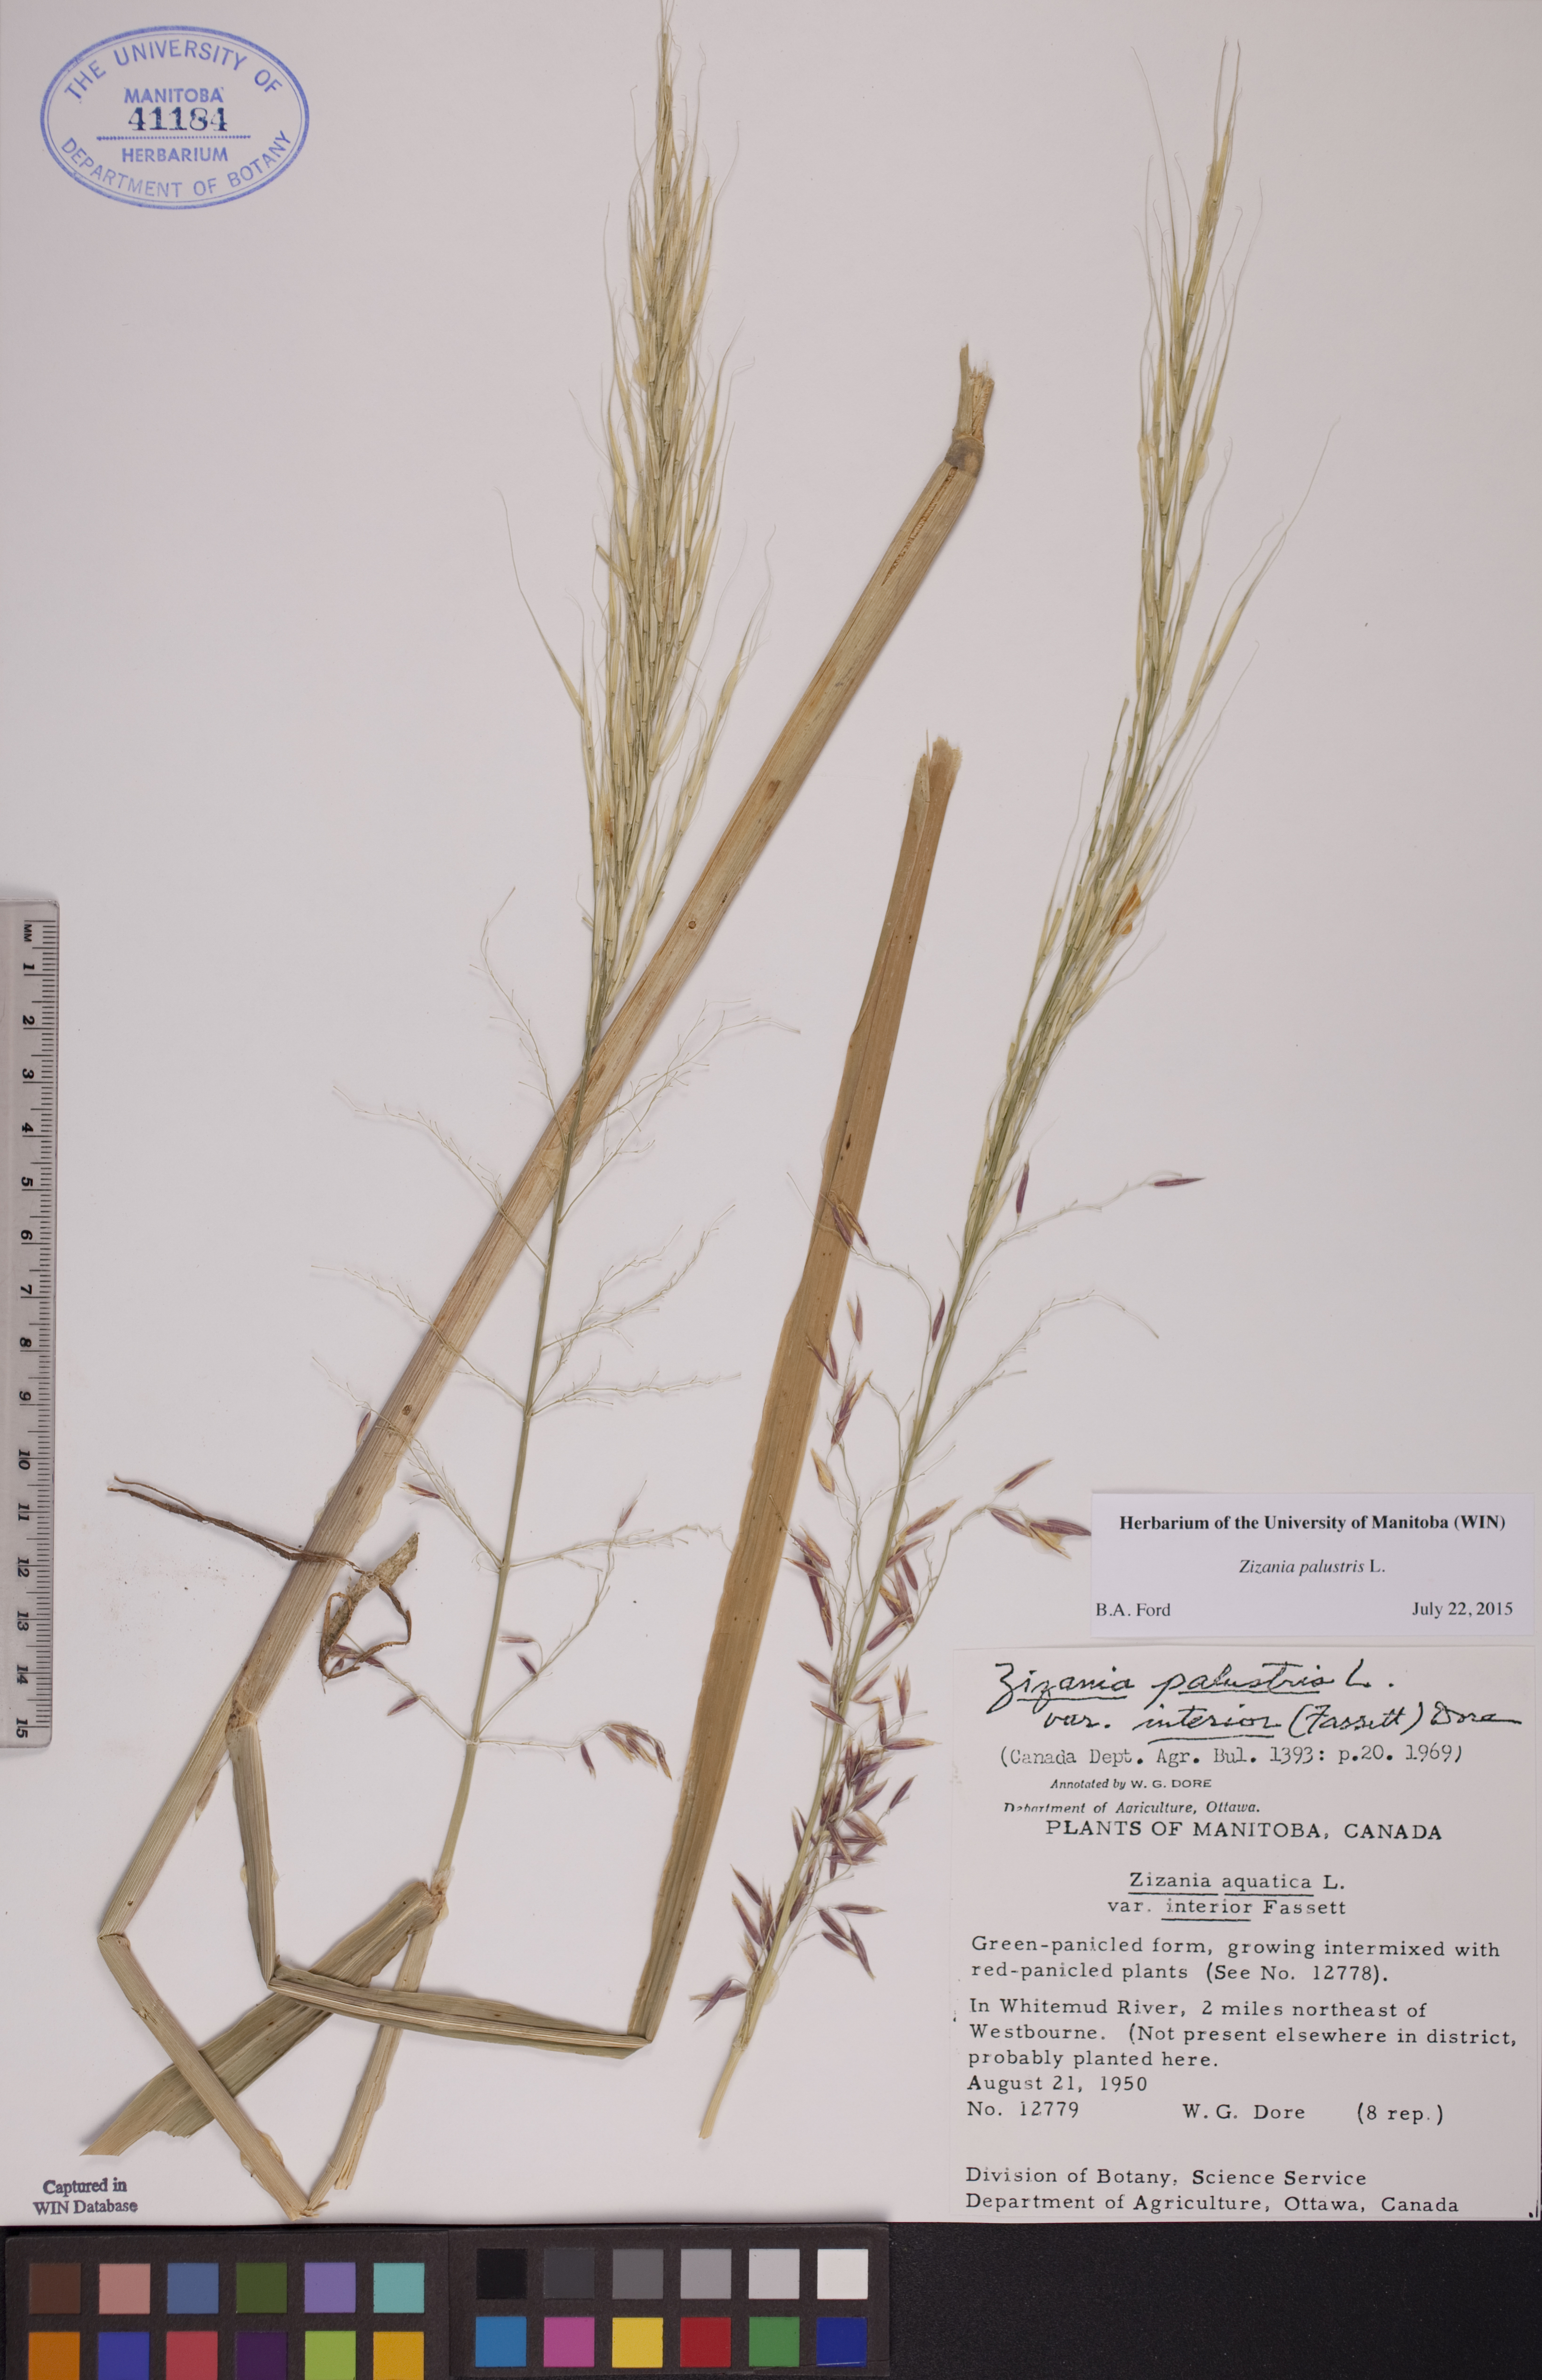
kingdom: Plantae
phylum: Tracheophyta
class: Liliopsida
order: Poales
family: Poaceae
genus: Zizania
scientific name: Zizania palustris
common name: Northern wild rice
